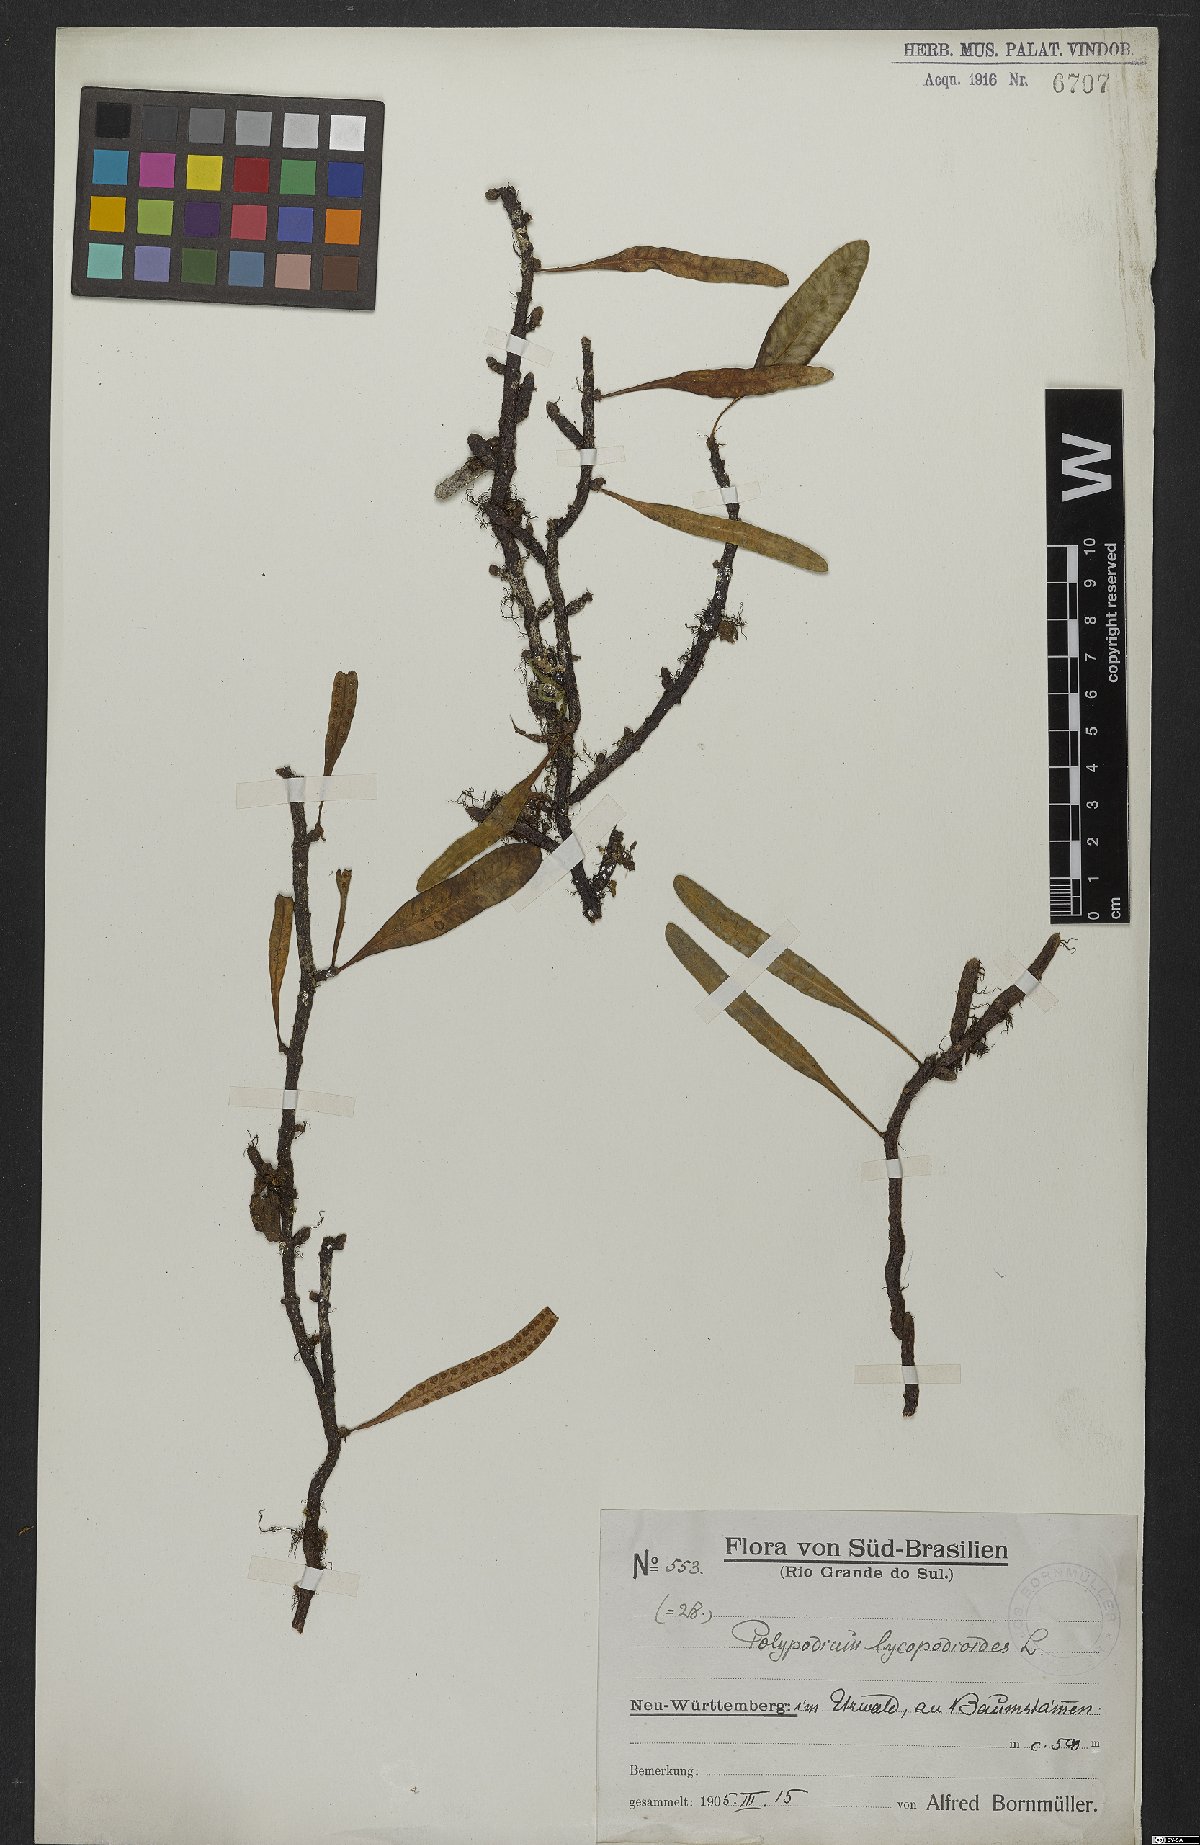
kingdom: Plantae
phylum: Tracheophyta
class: Polypodiopsida
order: Polypodiales
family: Polypodiaceae
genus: Microgramma
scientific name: Microgramma lycopodioides
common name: Bastard catclaw
